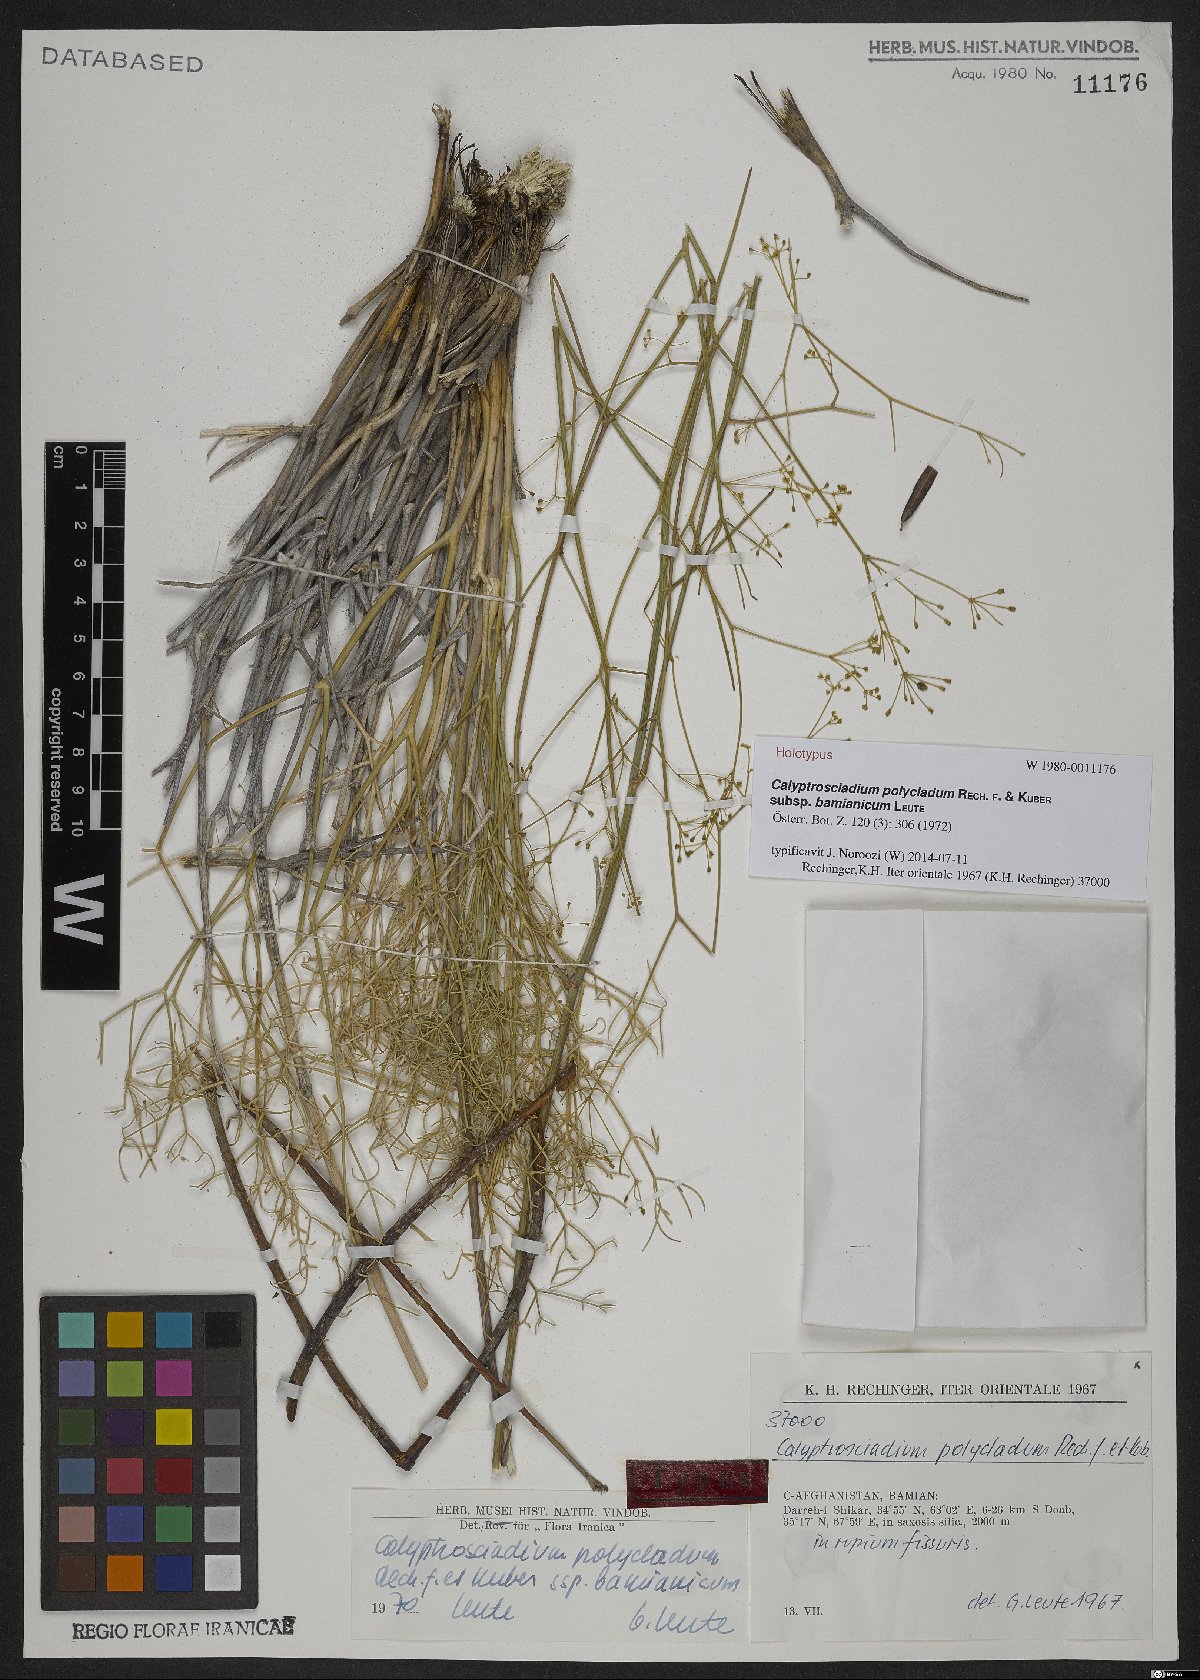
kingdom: Plantae
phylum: Tracheophyta
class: Magnoliopsida
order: Apiales
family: Apiaceae
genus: Calyptrosciadium
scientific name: Calyptrosciadium bungei
